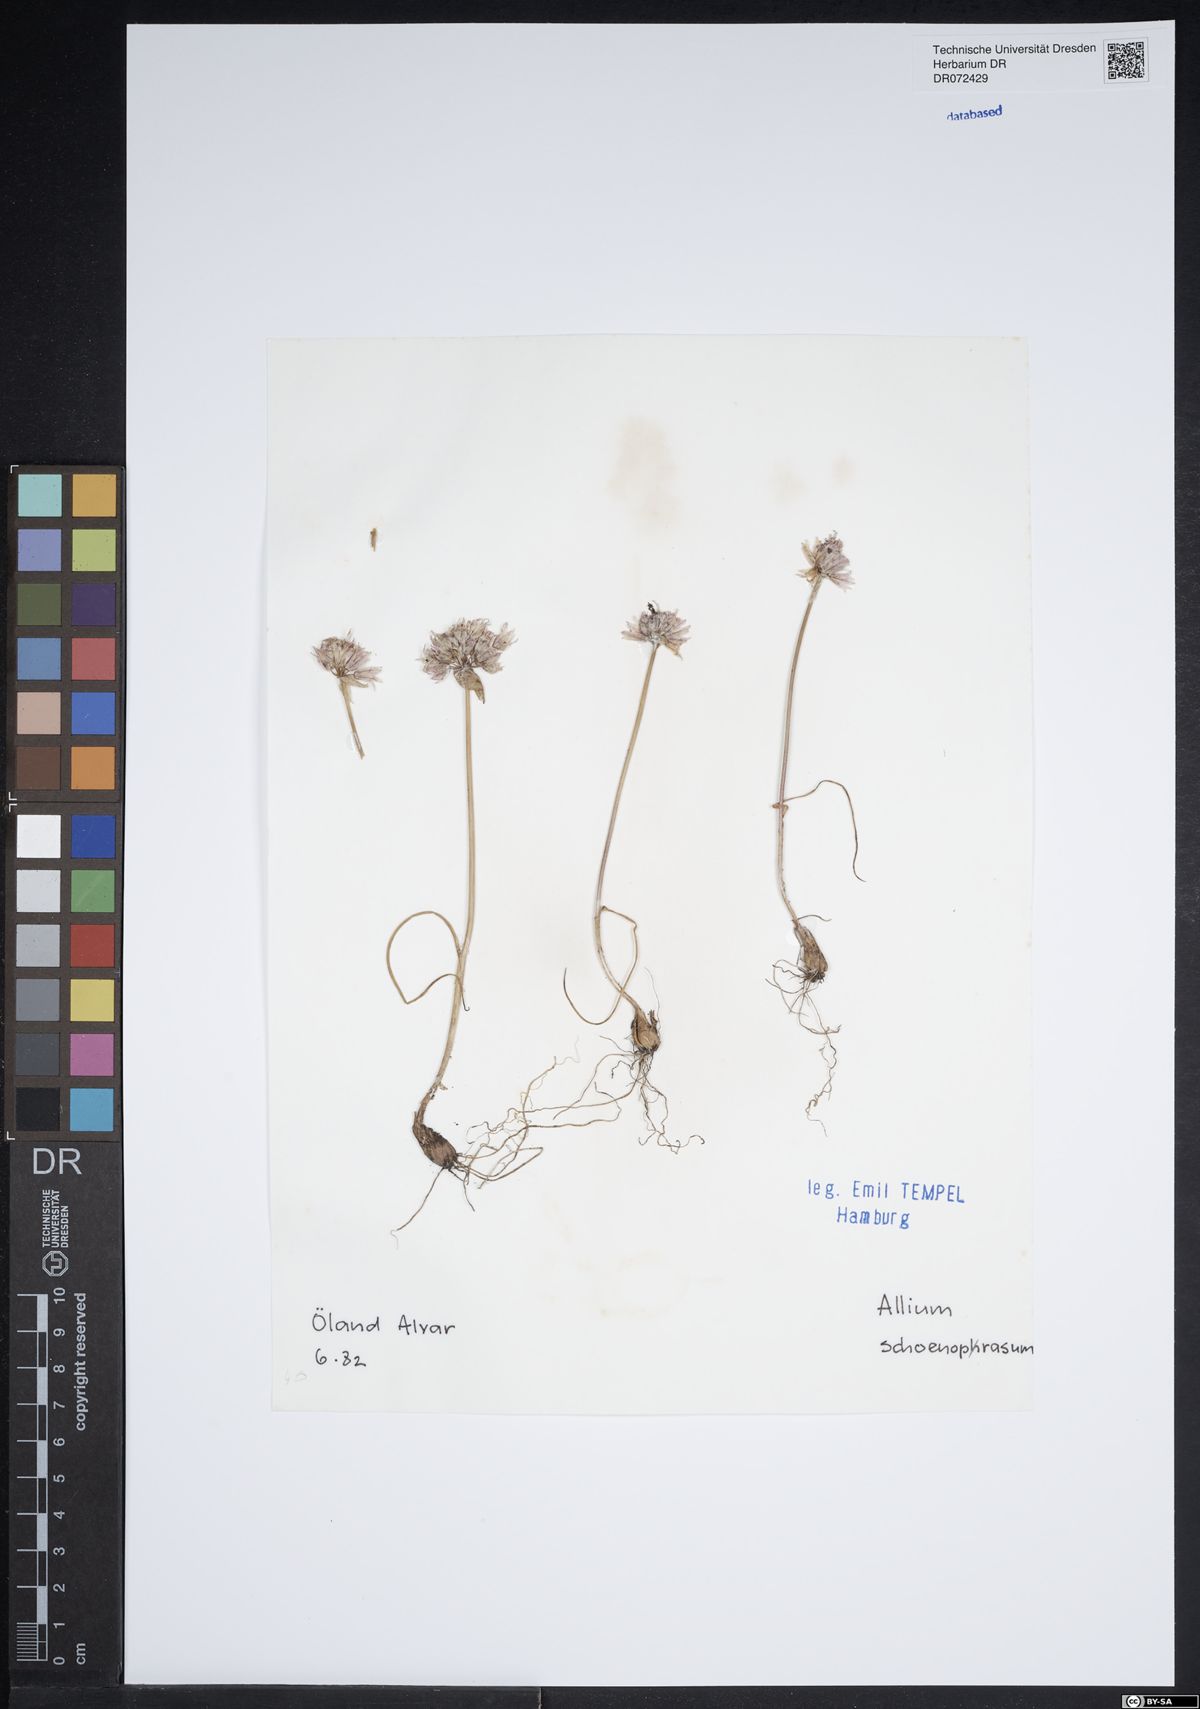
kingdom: Plantae
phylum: Tracheophyta
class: Liliopsida
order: Asparagales
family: Amaryllidaceae
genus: Allium
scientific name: Allium schoenoprasum
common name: Chives
